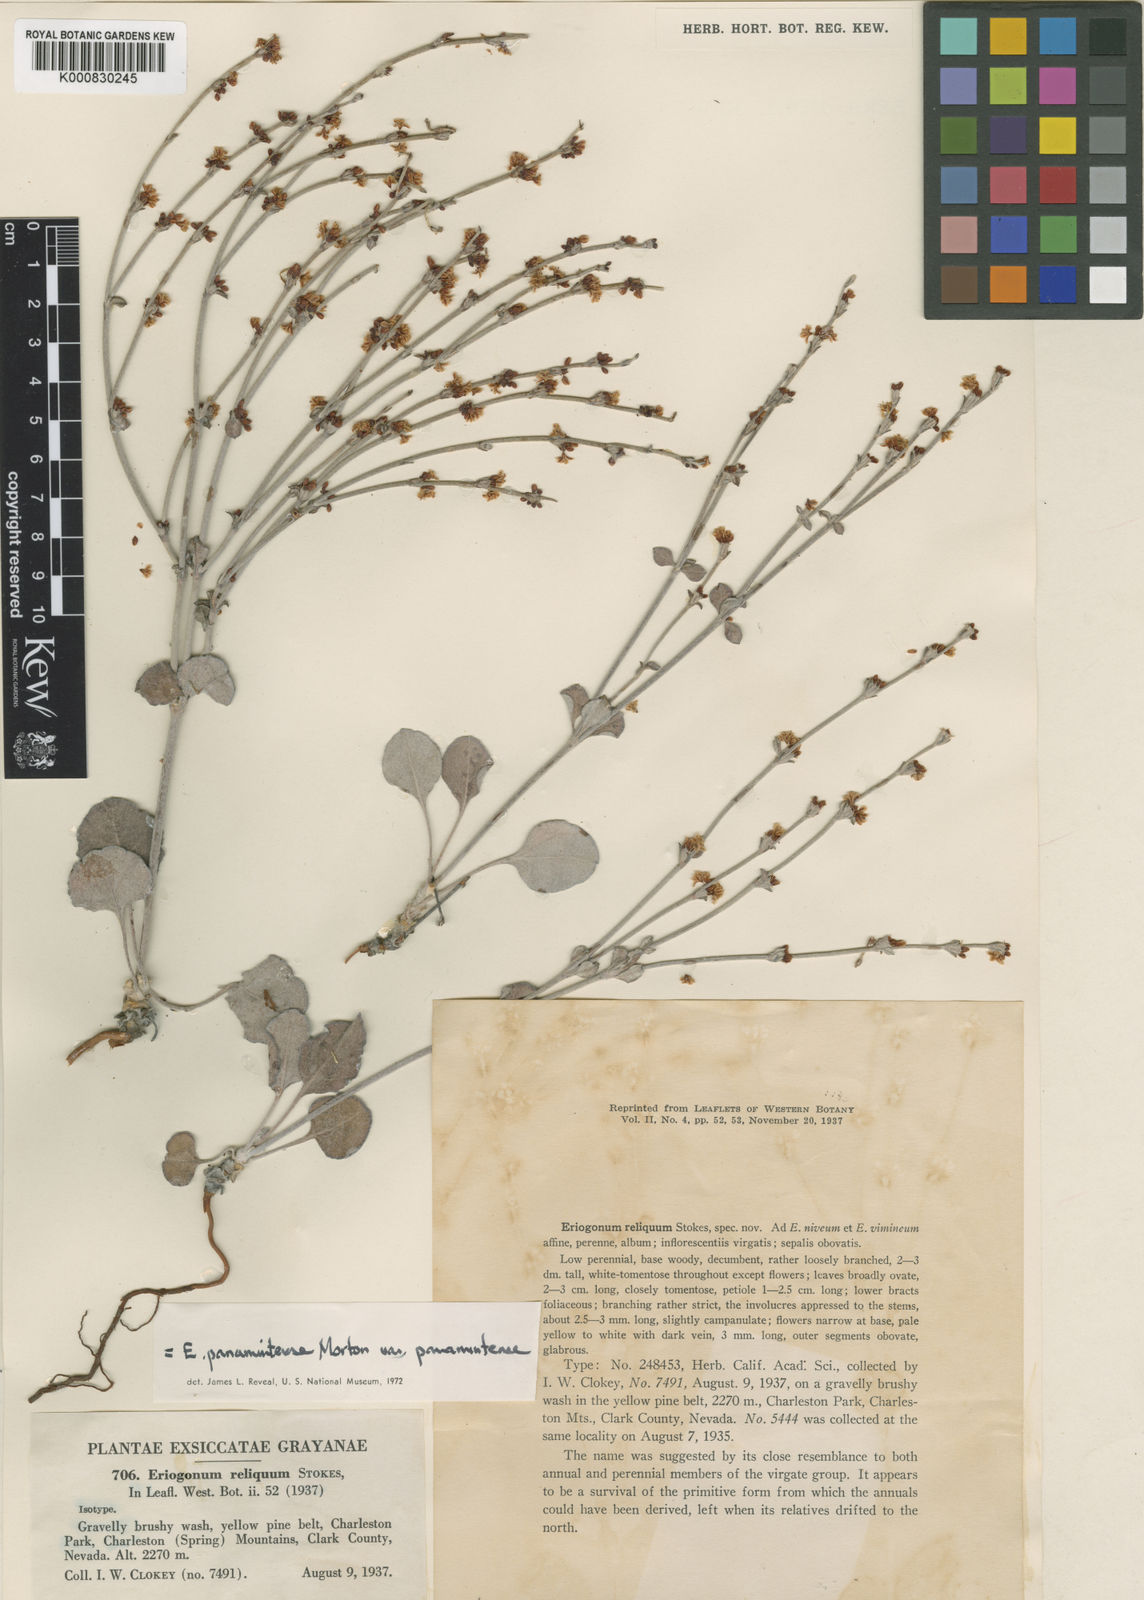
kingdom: Plantae
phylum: Tracheophyta
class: Magnoliopsida
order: Caryophyllales
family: Polygonaceae
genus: Eriogonum
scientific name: Eriogonum panamintense
